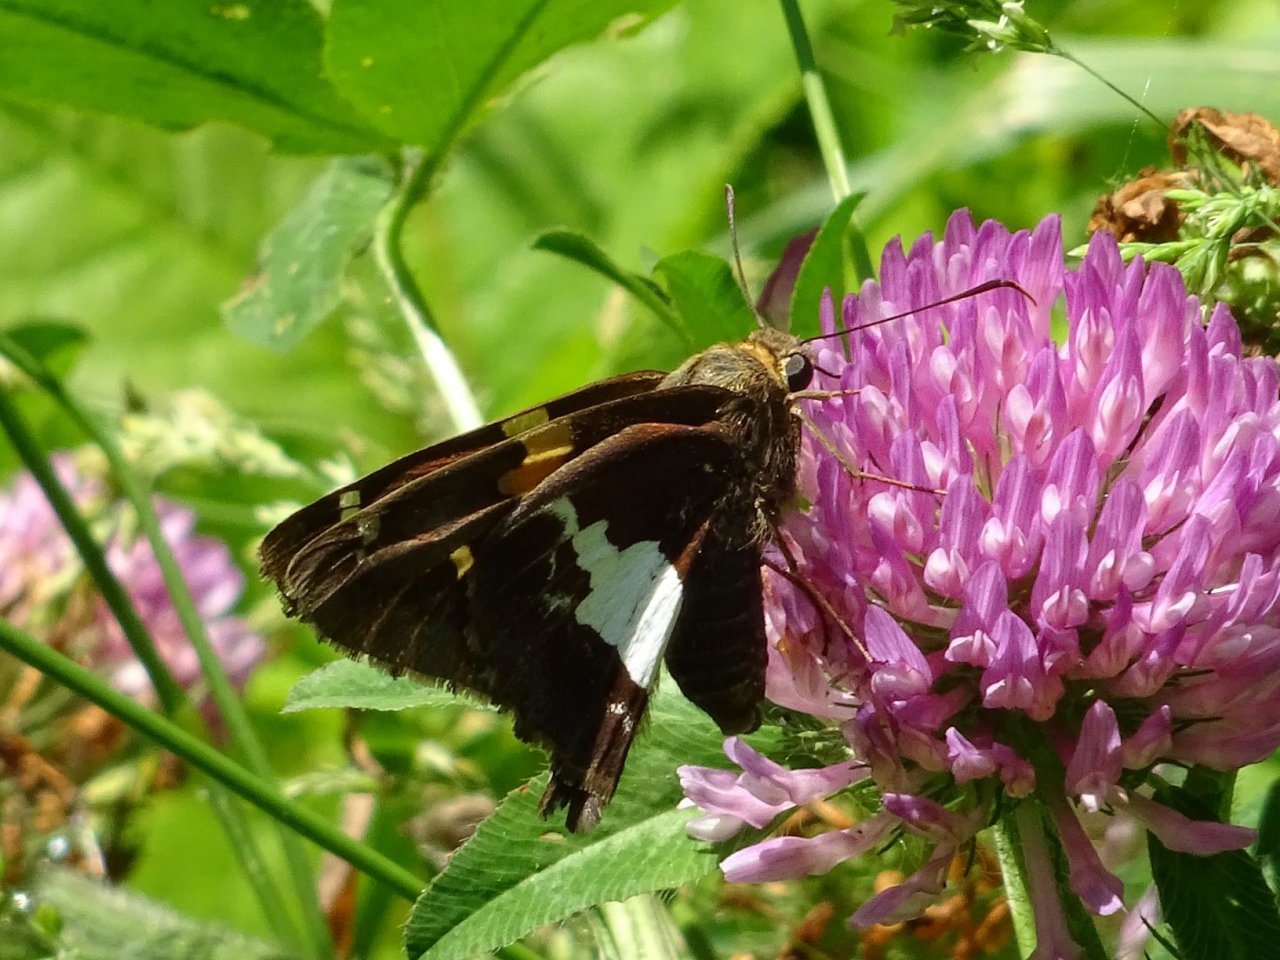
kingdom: Animalia
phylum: Arthropoda
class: Insecta
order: Lepidoptera
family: Hesperiidae
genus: Epargyreus
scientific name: Epargyreus clarus
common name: Silver-spotted Skipper
